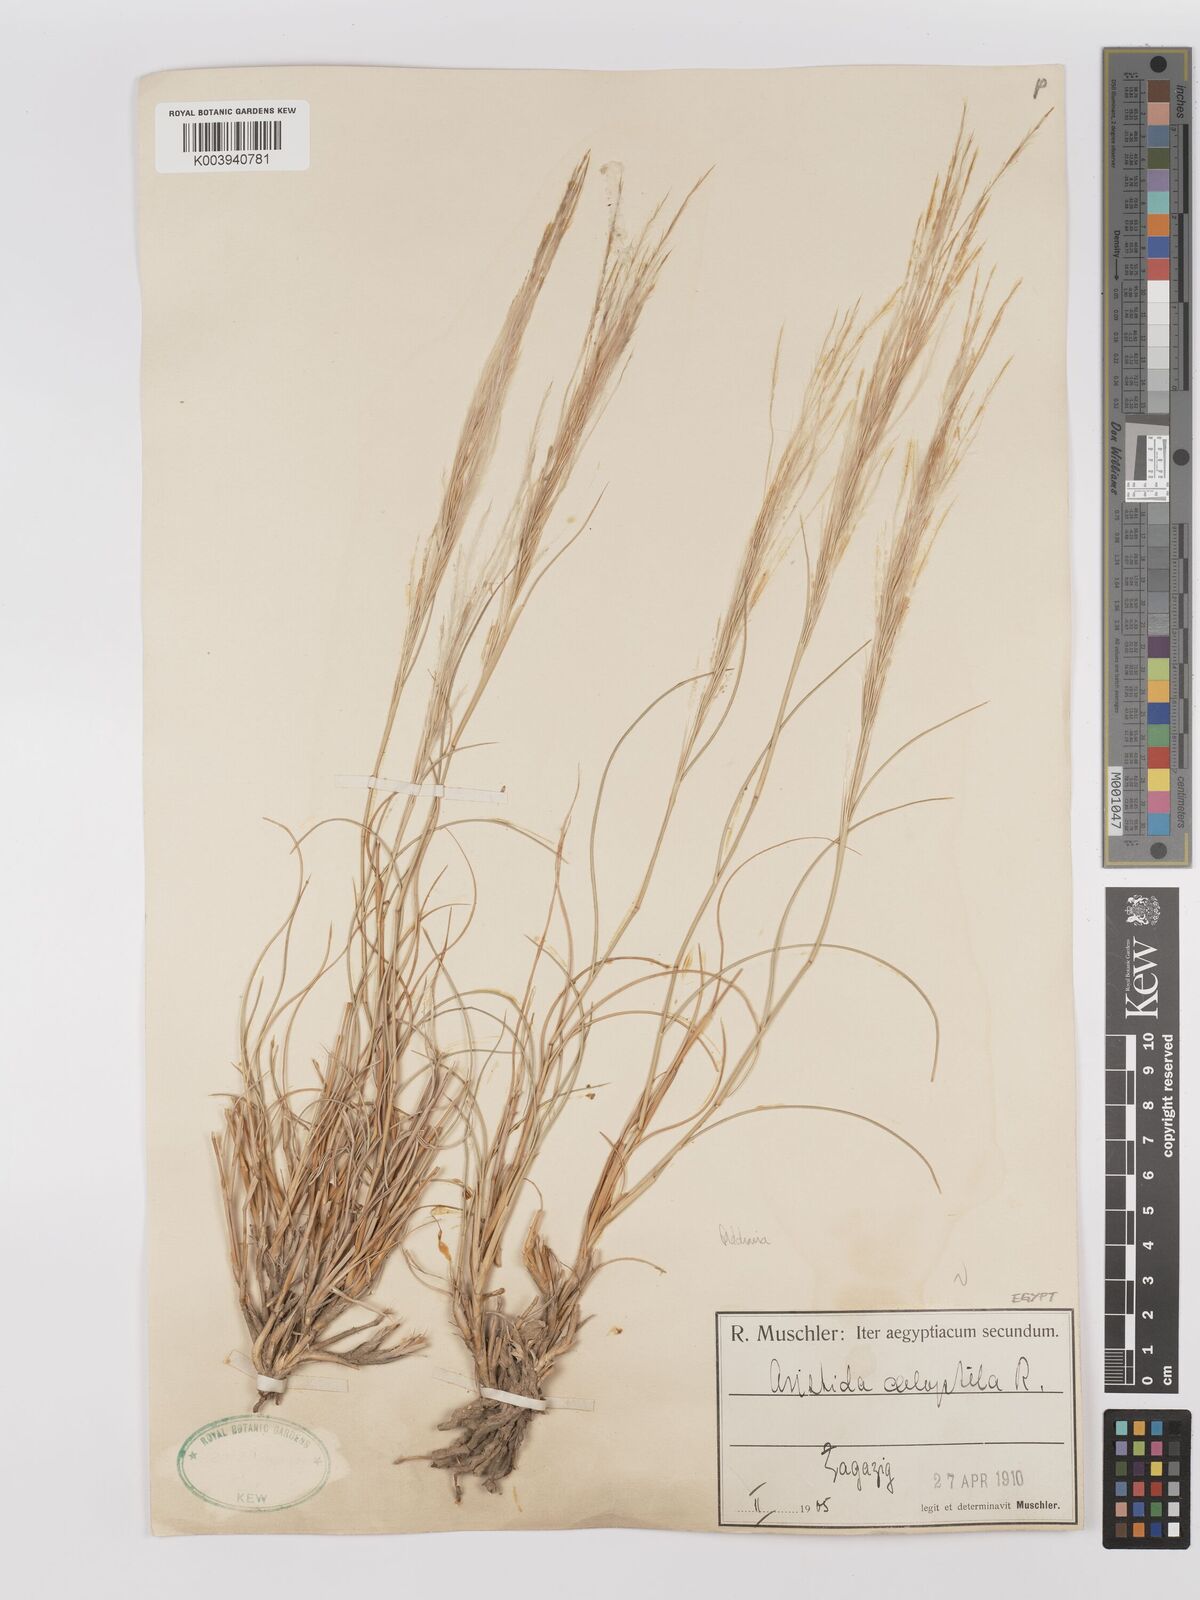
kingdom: Plantae
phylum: Tracheophyta
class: Liliopsida
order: Poales
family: Poaceae
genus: Stipagrostis
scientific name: Stipagrostis raddiana
